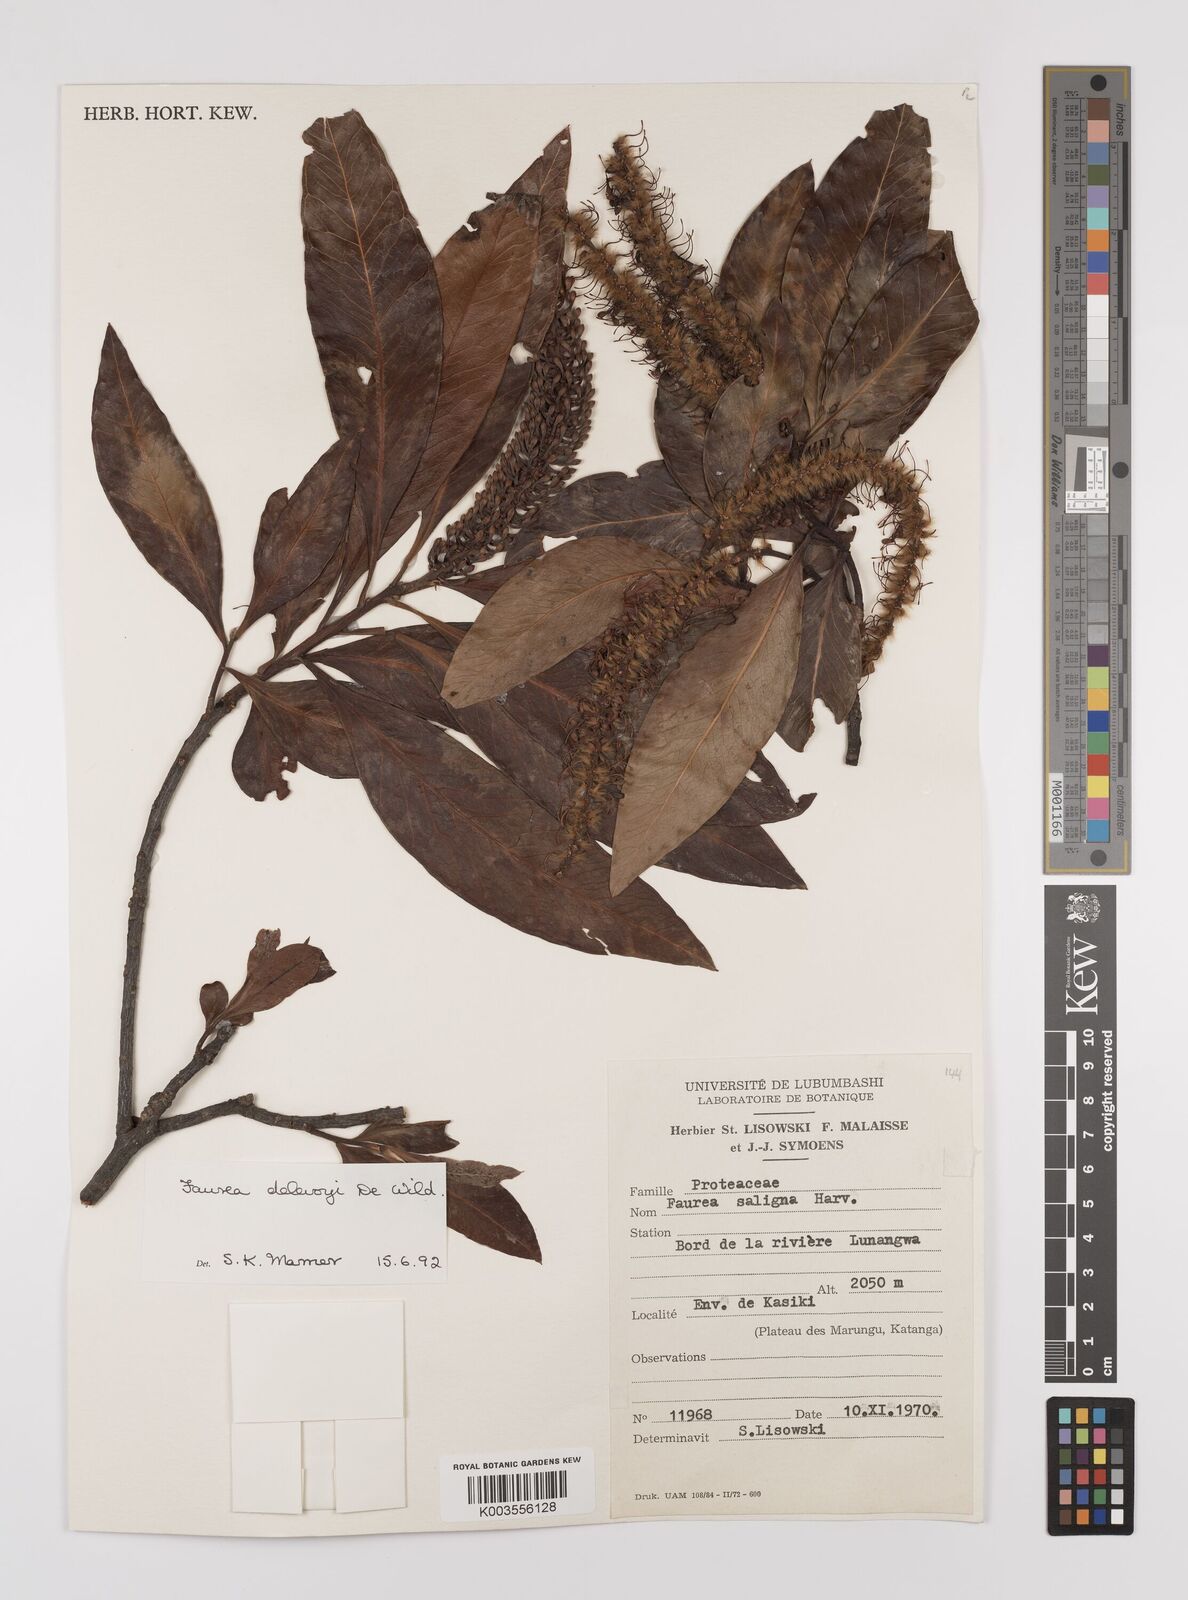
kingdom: Plantae
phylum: Tracheophyta
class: Magnoliopsida
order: Proteales
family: Proteaceae
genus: Faurea
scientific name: Faurea delevoyi
